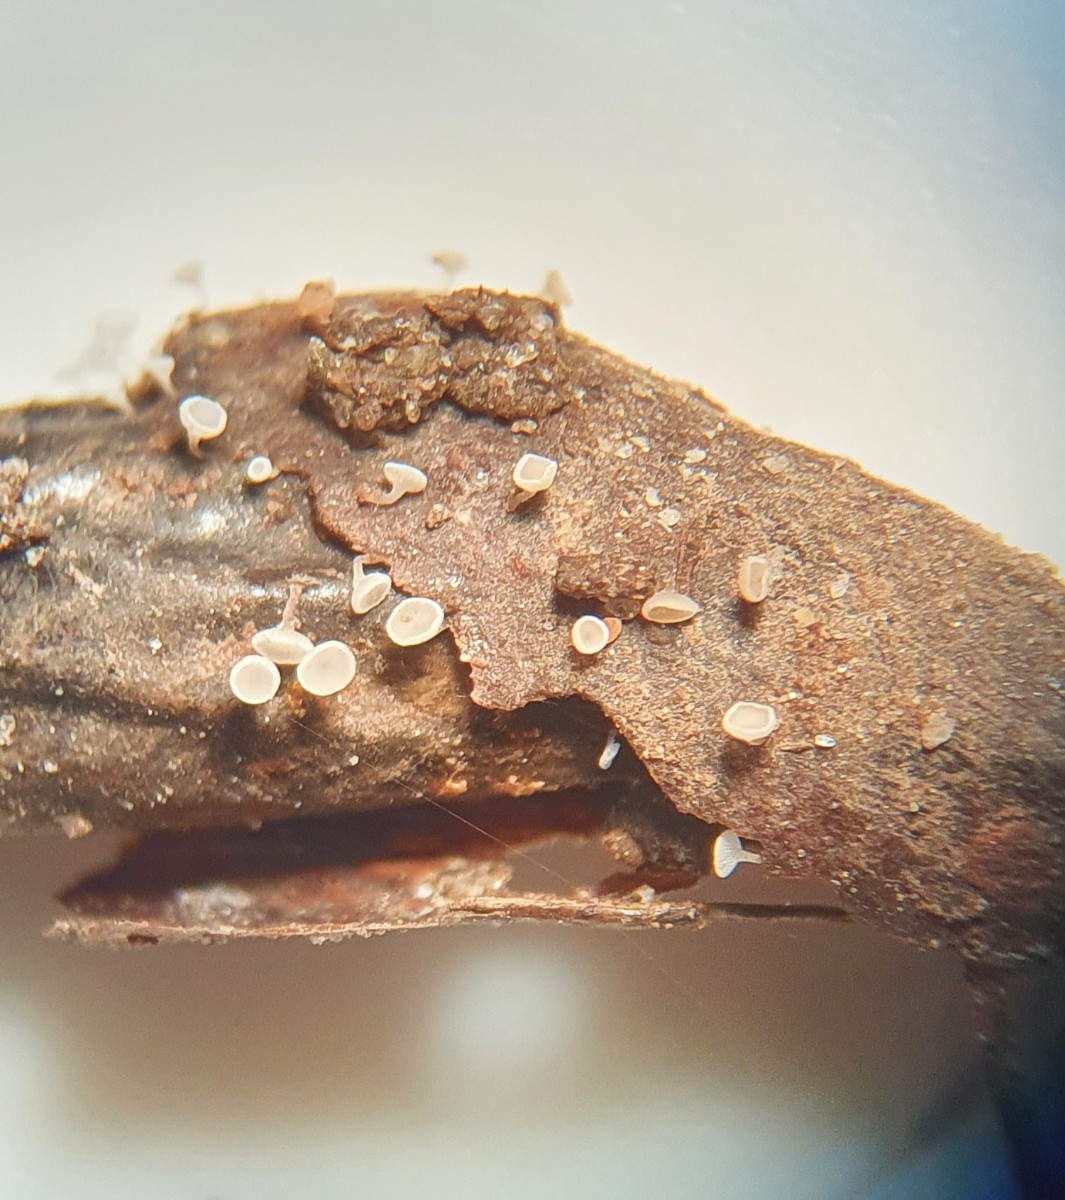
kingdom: Fungi
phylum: Ascomycota
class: Leotiomycetes
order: Helotiales
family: Pezizellaceae
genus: Gemmina
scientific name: Gemmina gemmarum
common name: poppelskæl-gulskive
